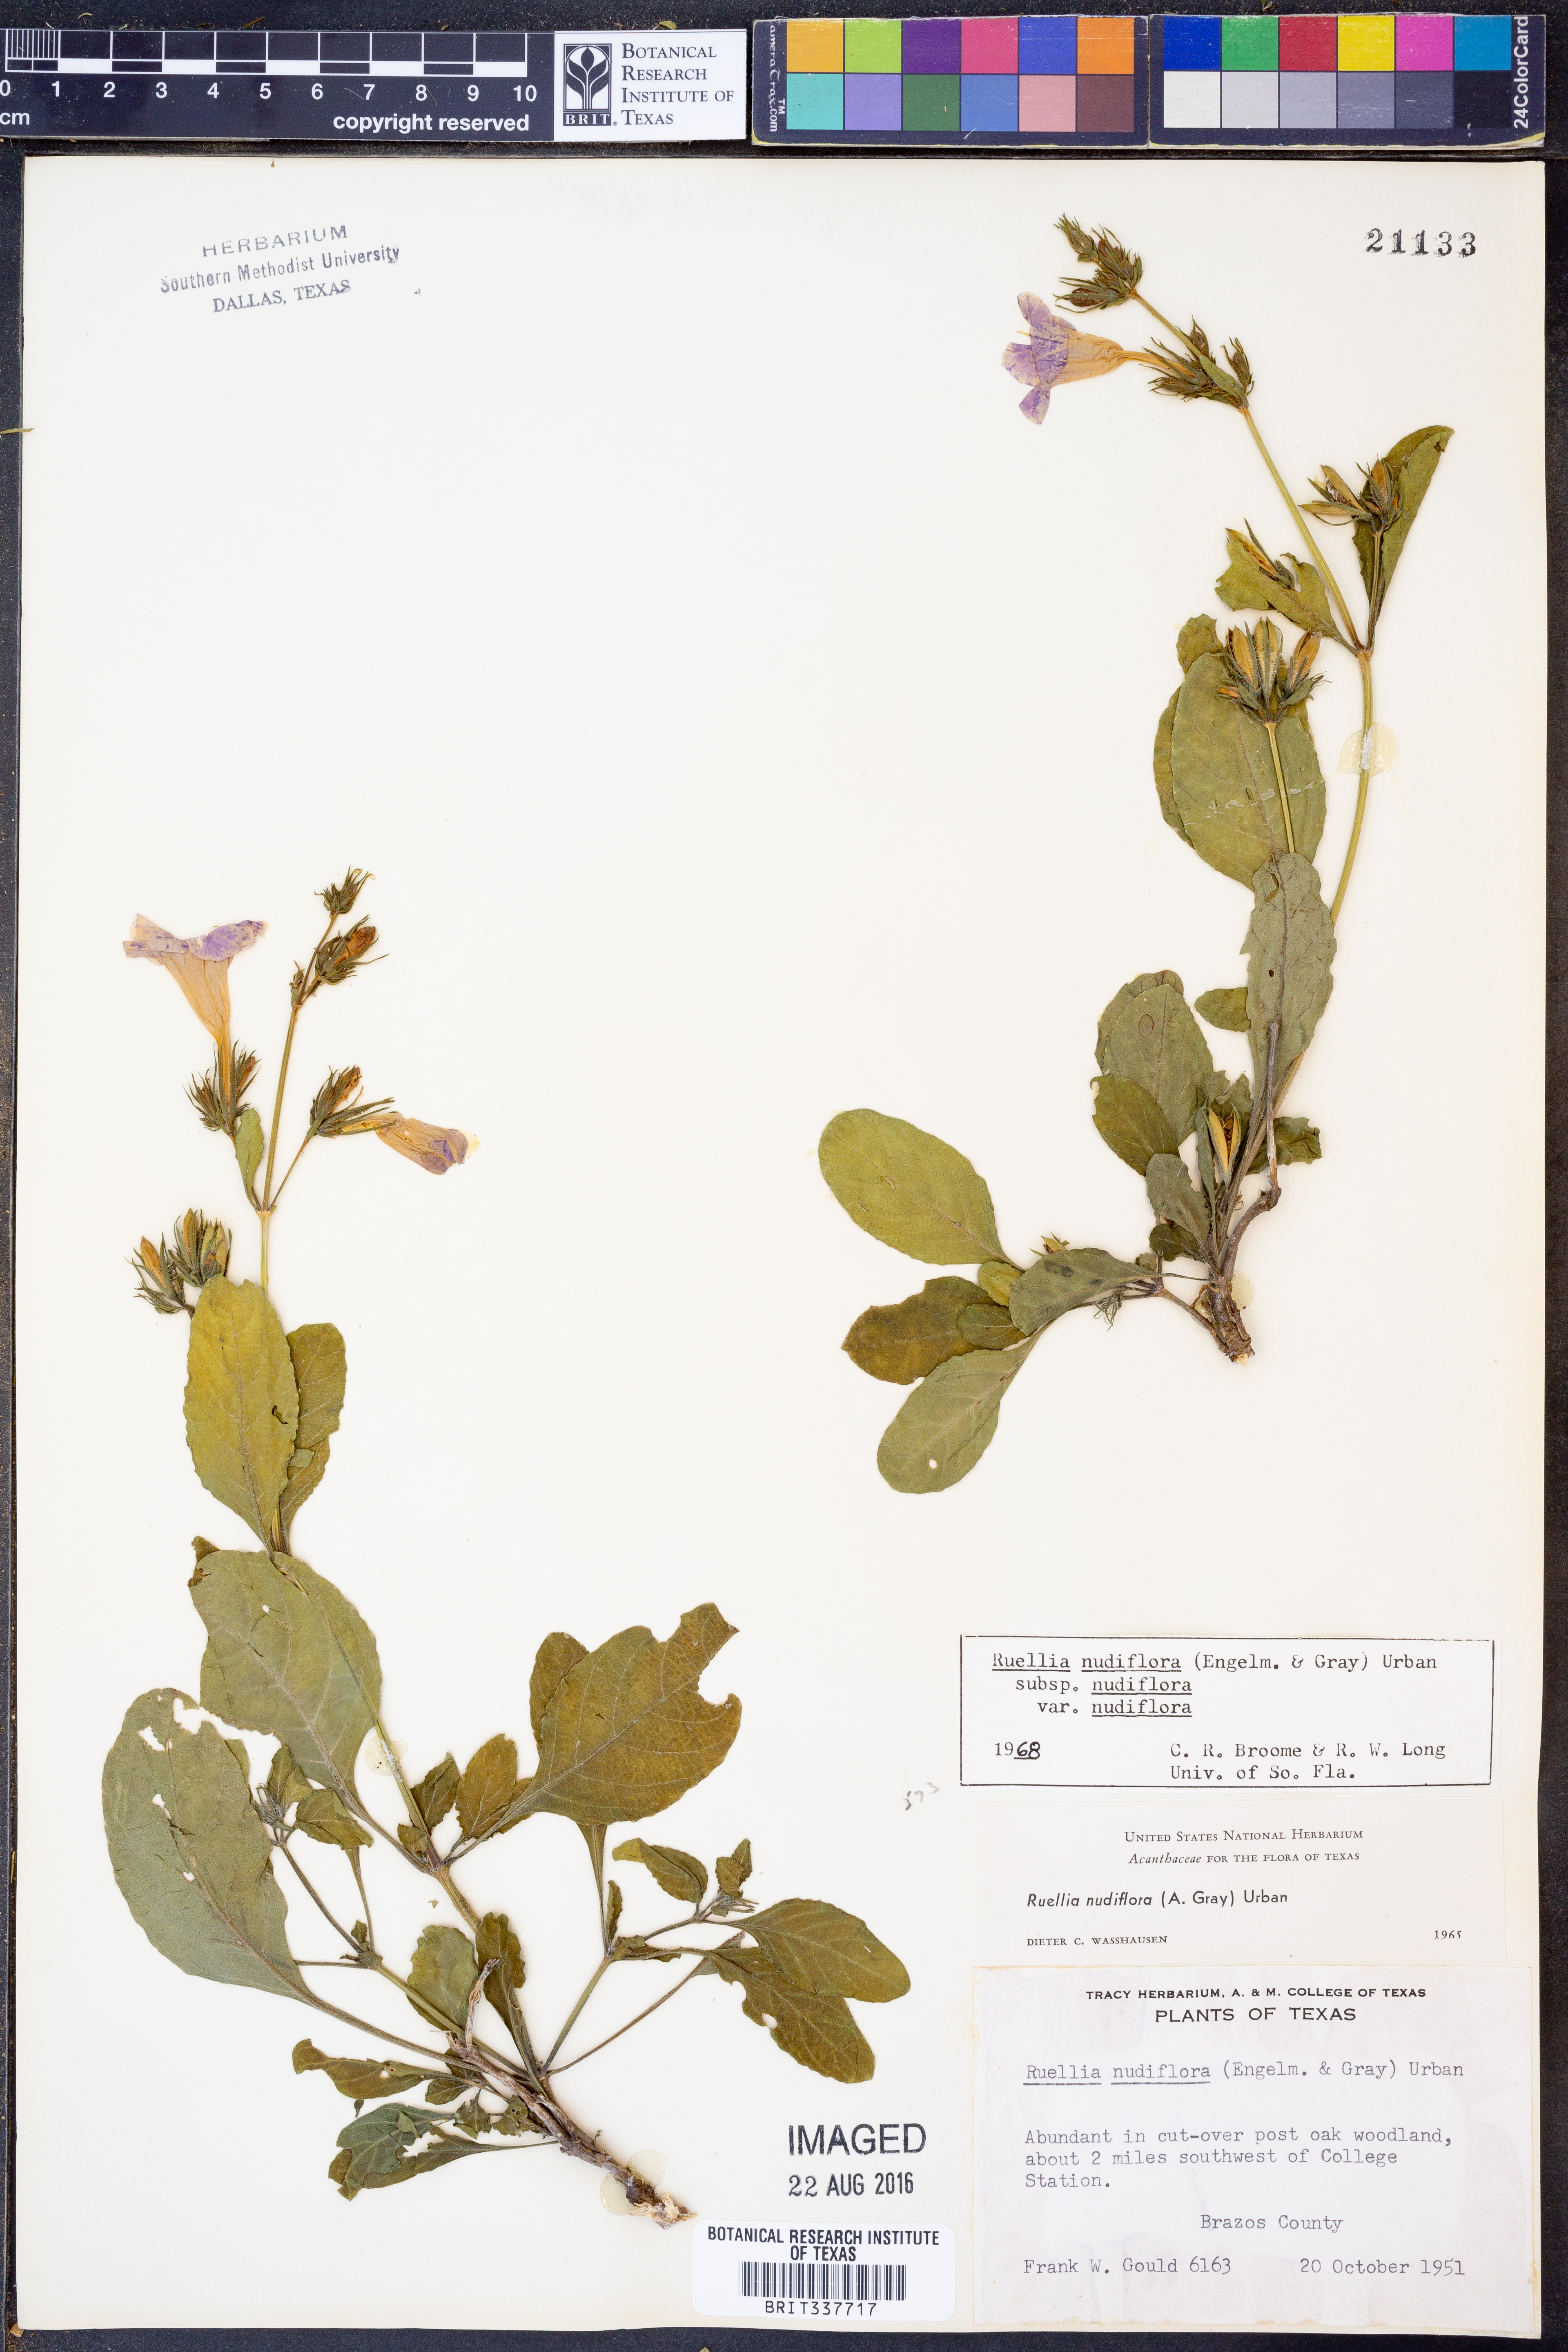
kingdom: Plantae
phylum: Tracheophyta
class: Magnoliopsida
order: Lamiales
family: Acanthaceae
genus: Ruellia
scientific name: Ruellia ciliatiflora
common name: Hairyflower wild petunia
